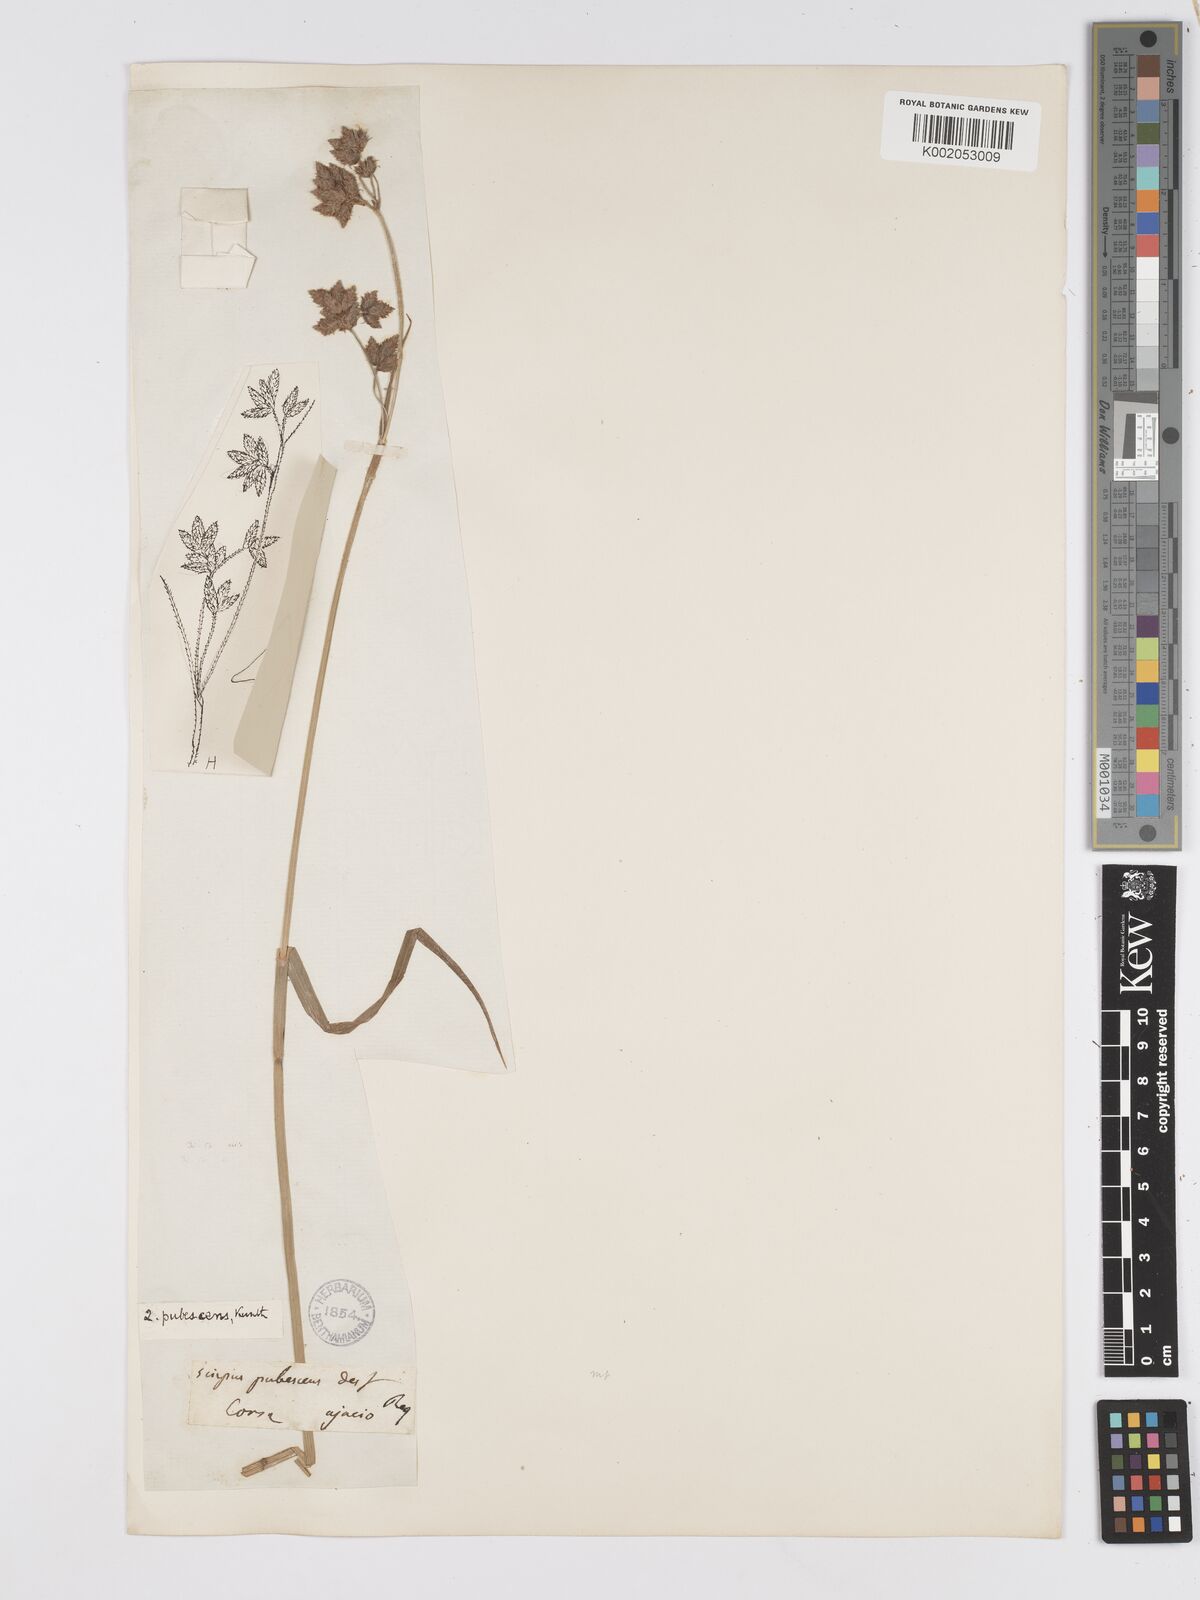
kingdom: Plantae
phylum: Tracheophyta
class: Liliopsida
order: Poales
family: Cyperaceae
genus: Fuirena
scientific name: Fuirena pubescens
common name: Hairy sedge
